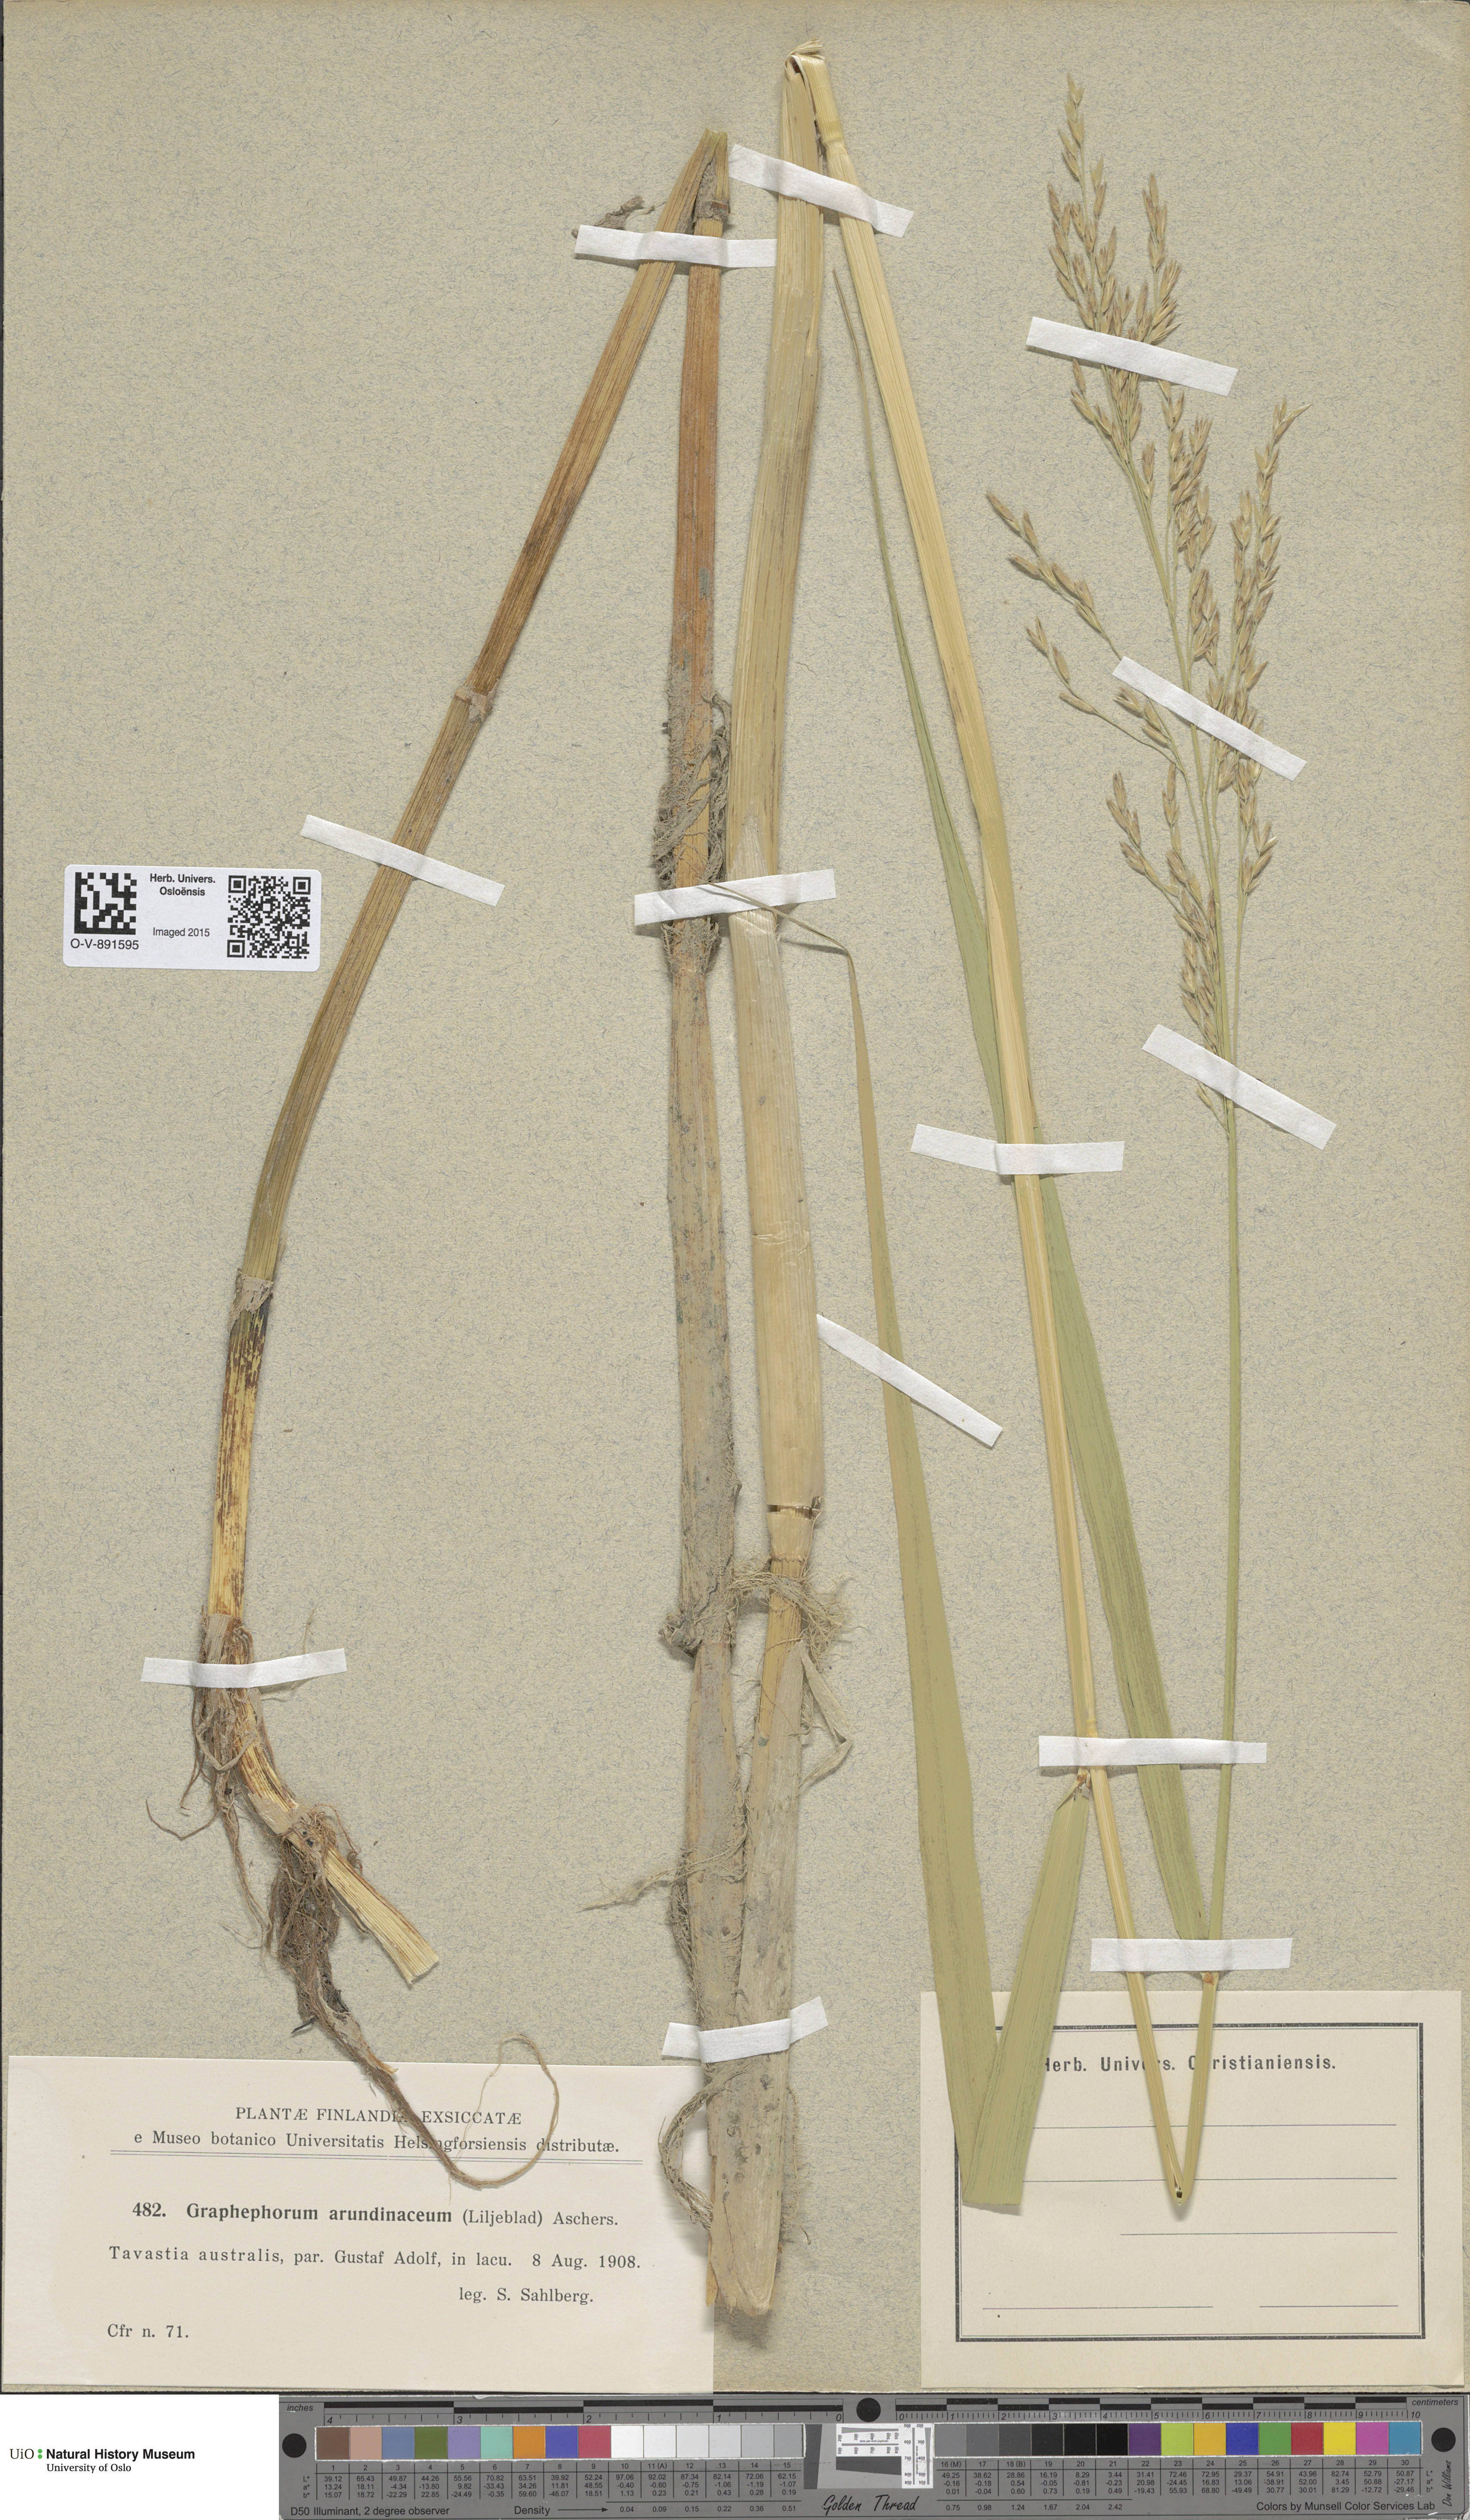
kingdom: Plantae
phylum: Tracheophyta
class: Liliopsida
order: Poales
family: Poaceae
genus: Scolochloa
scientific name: Scolochloa festucacea
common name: Common rivergrass
